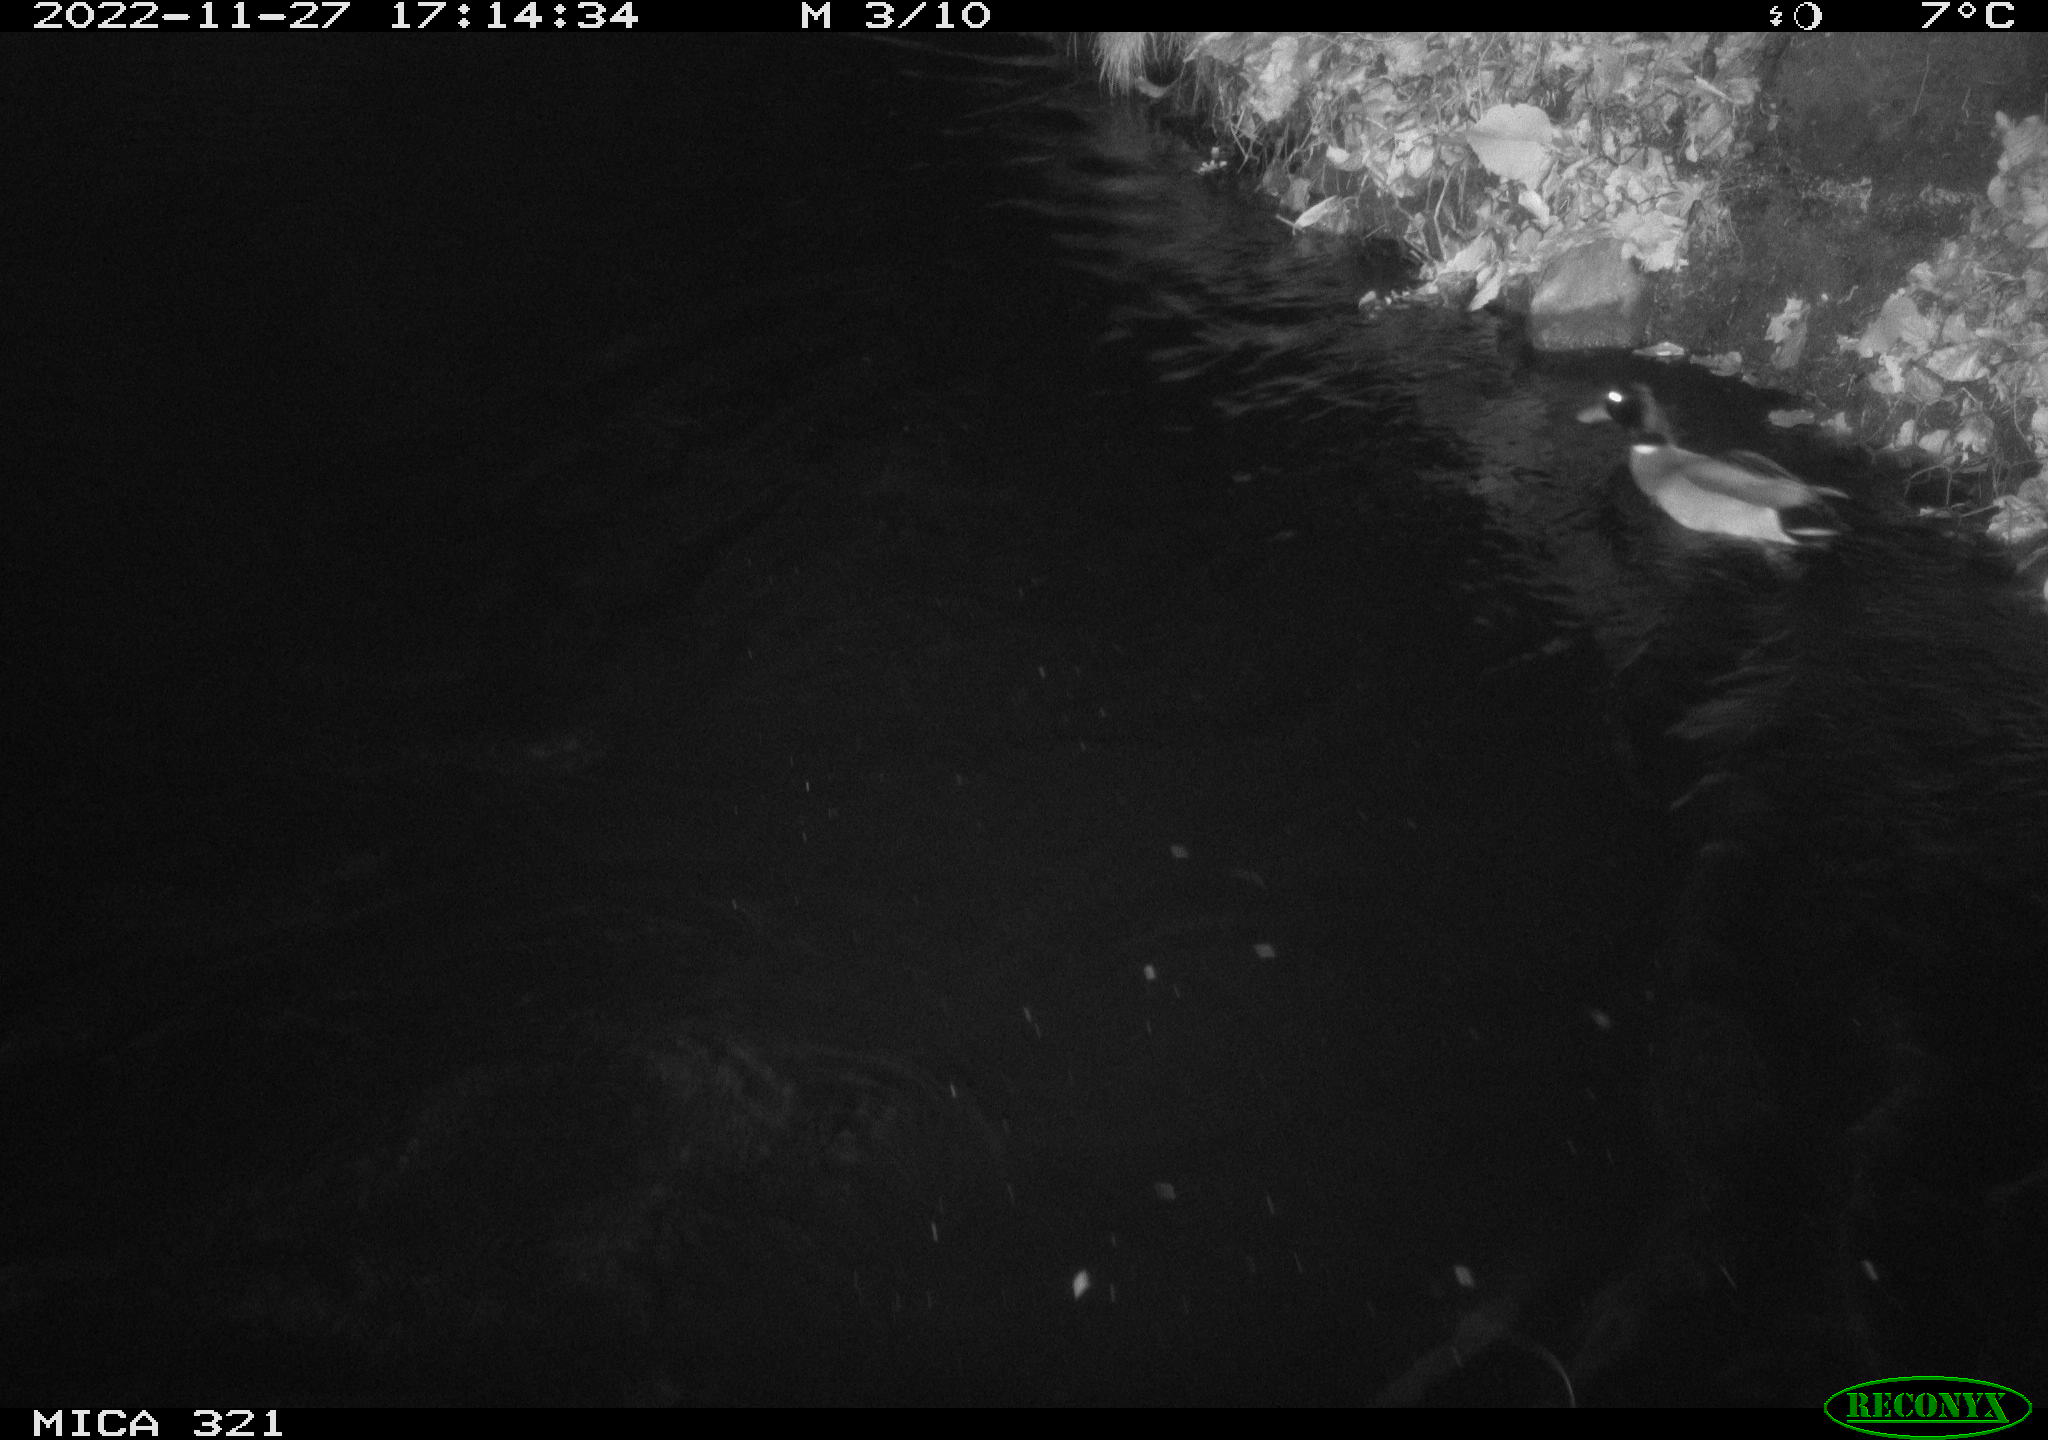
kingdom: Animalia
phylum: Chordata
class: Aves
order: Anseriformes
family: Anatidae
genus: Anas
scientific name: Anas
